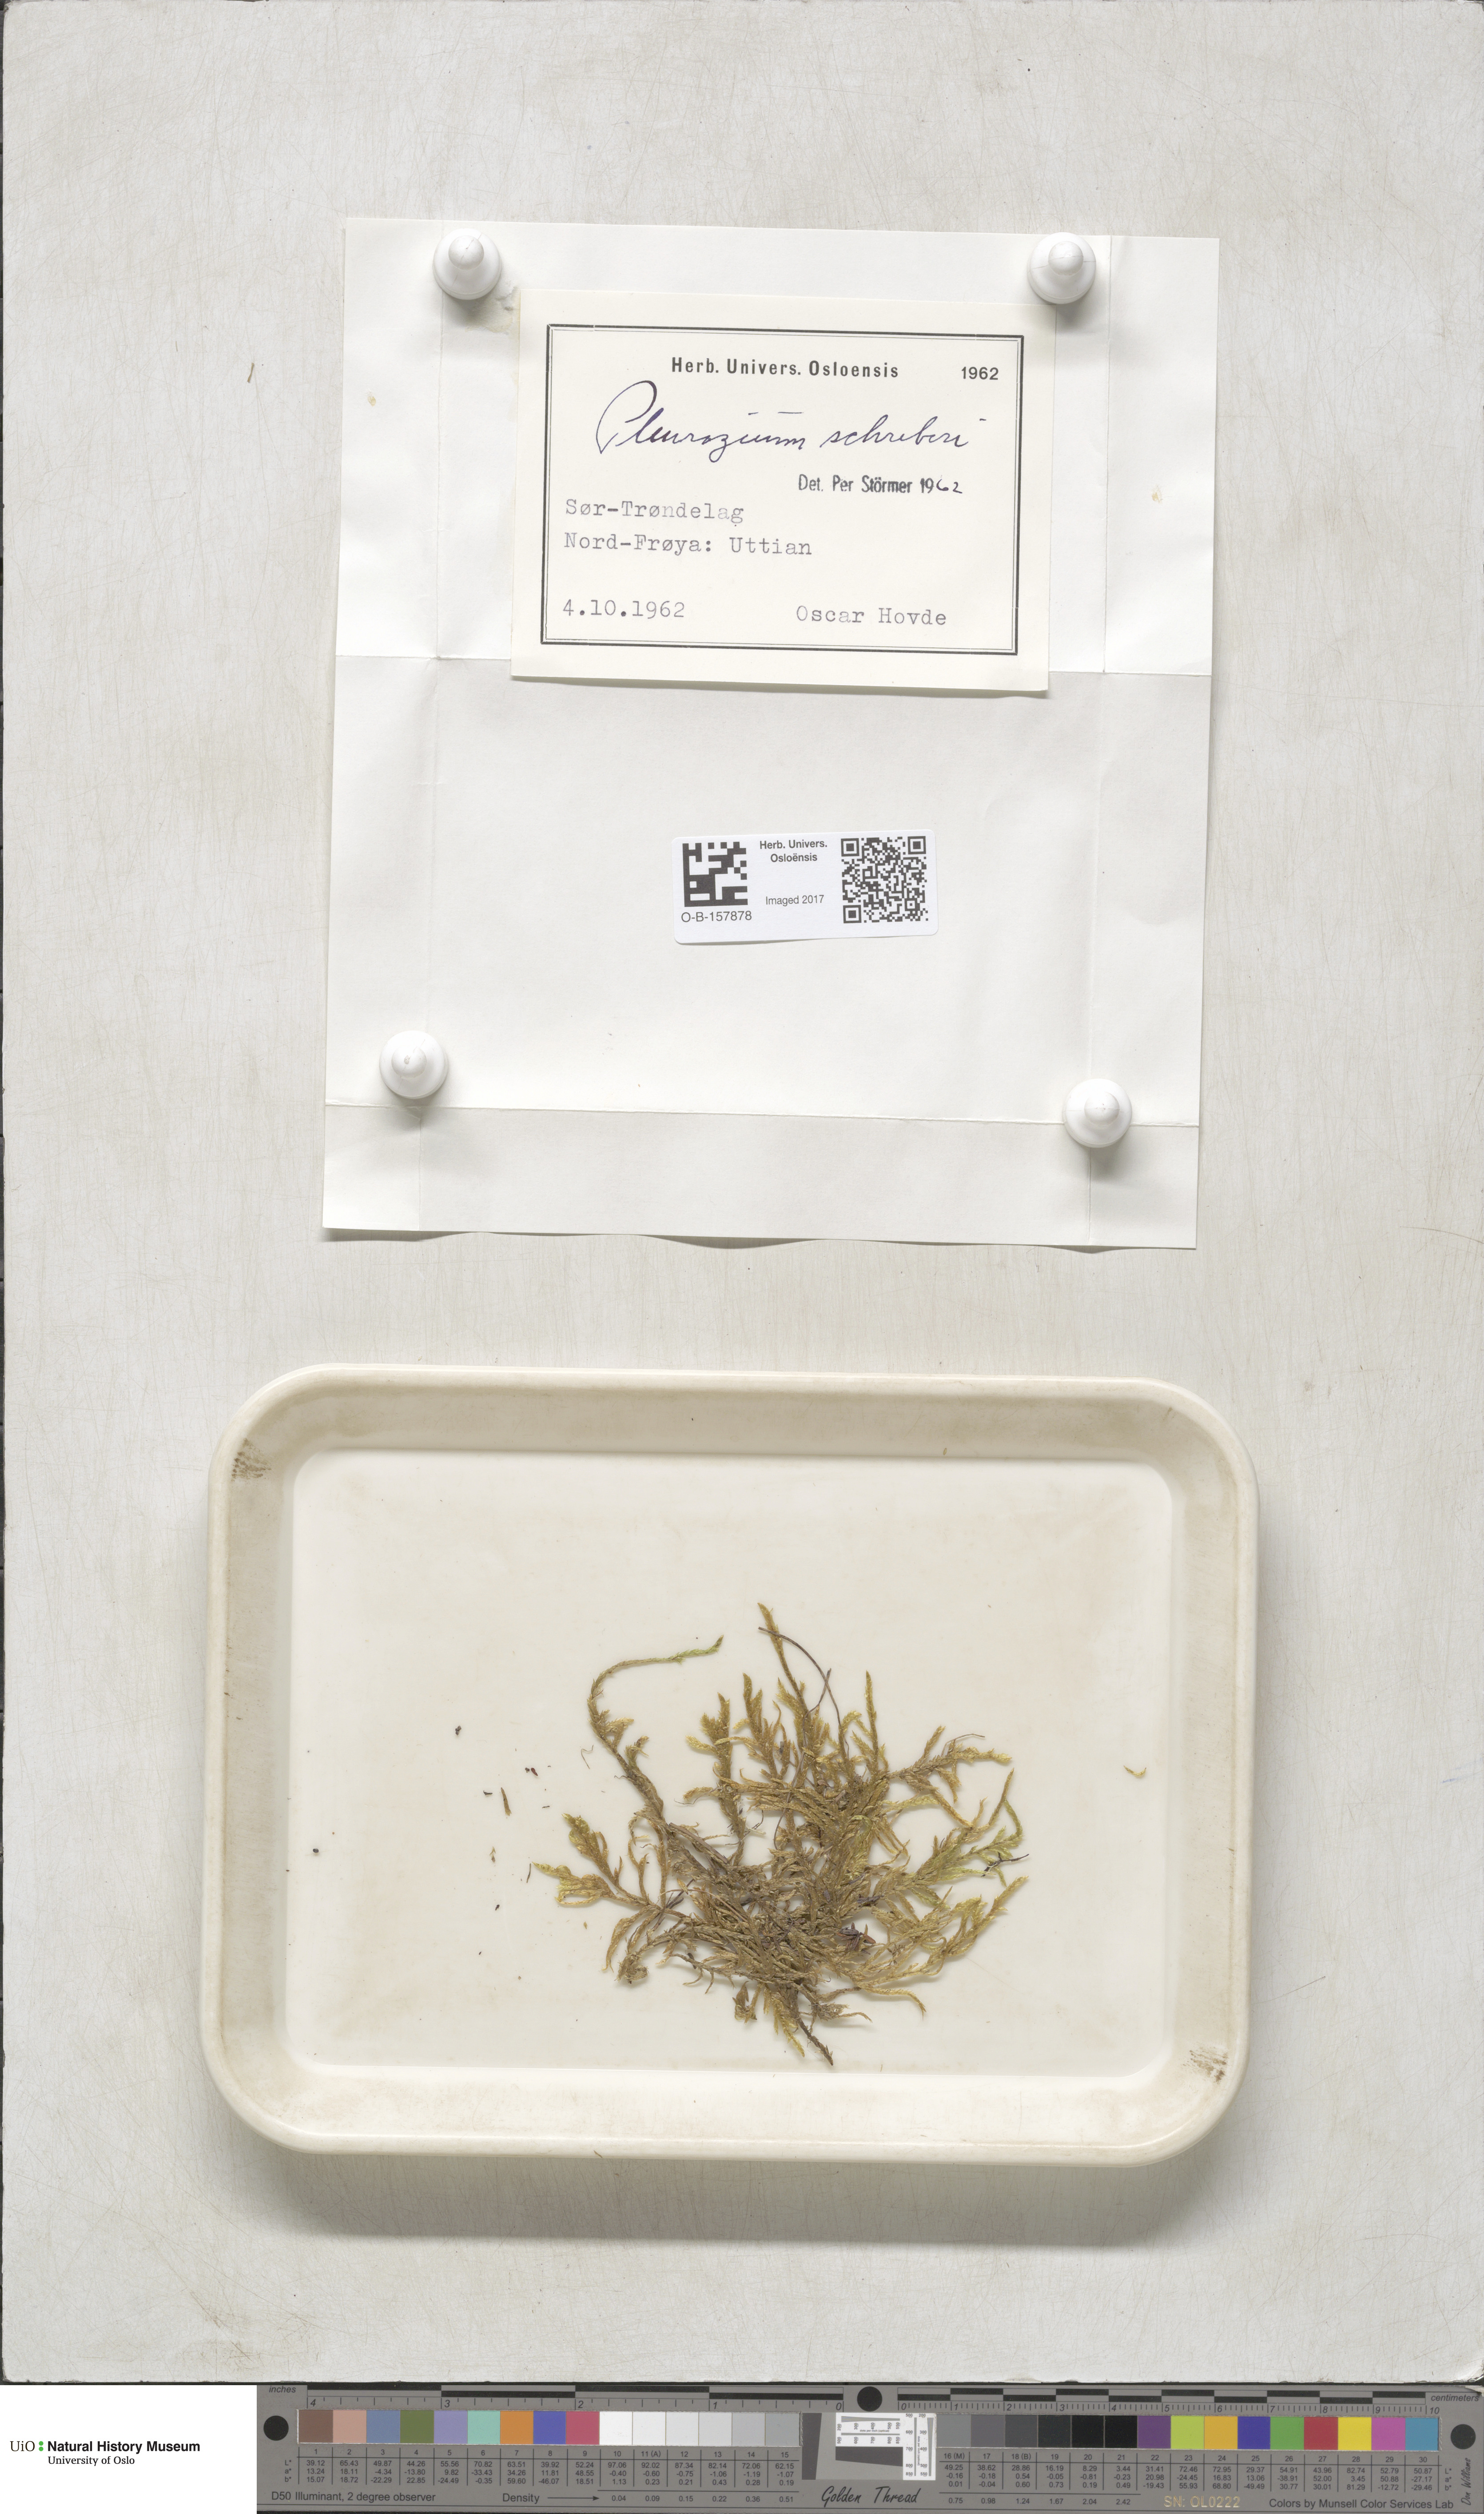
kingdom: Plantae
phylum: Bryophyta
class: Bryopsida
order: Hypnales
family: Hylocomiaceae
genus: Pleurozium
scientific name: Pleurozium schreberi
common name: Red-stemmed feather moss
